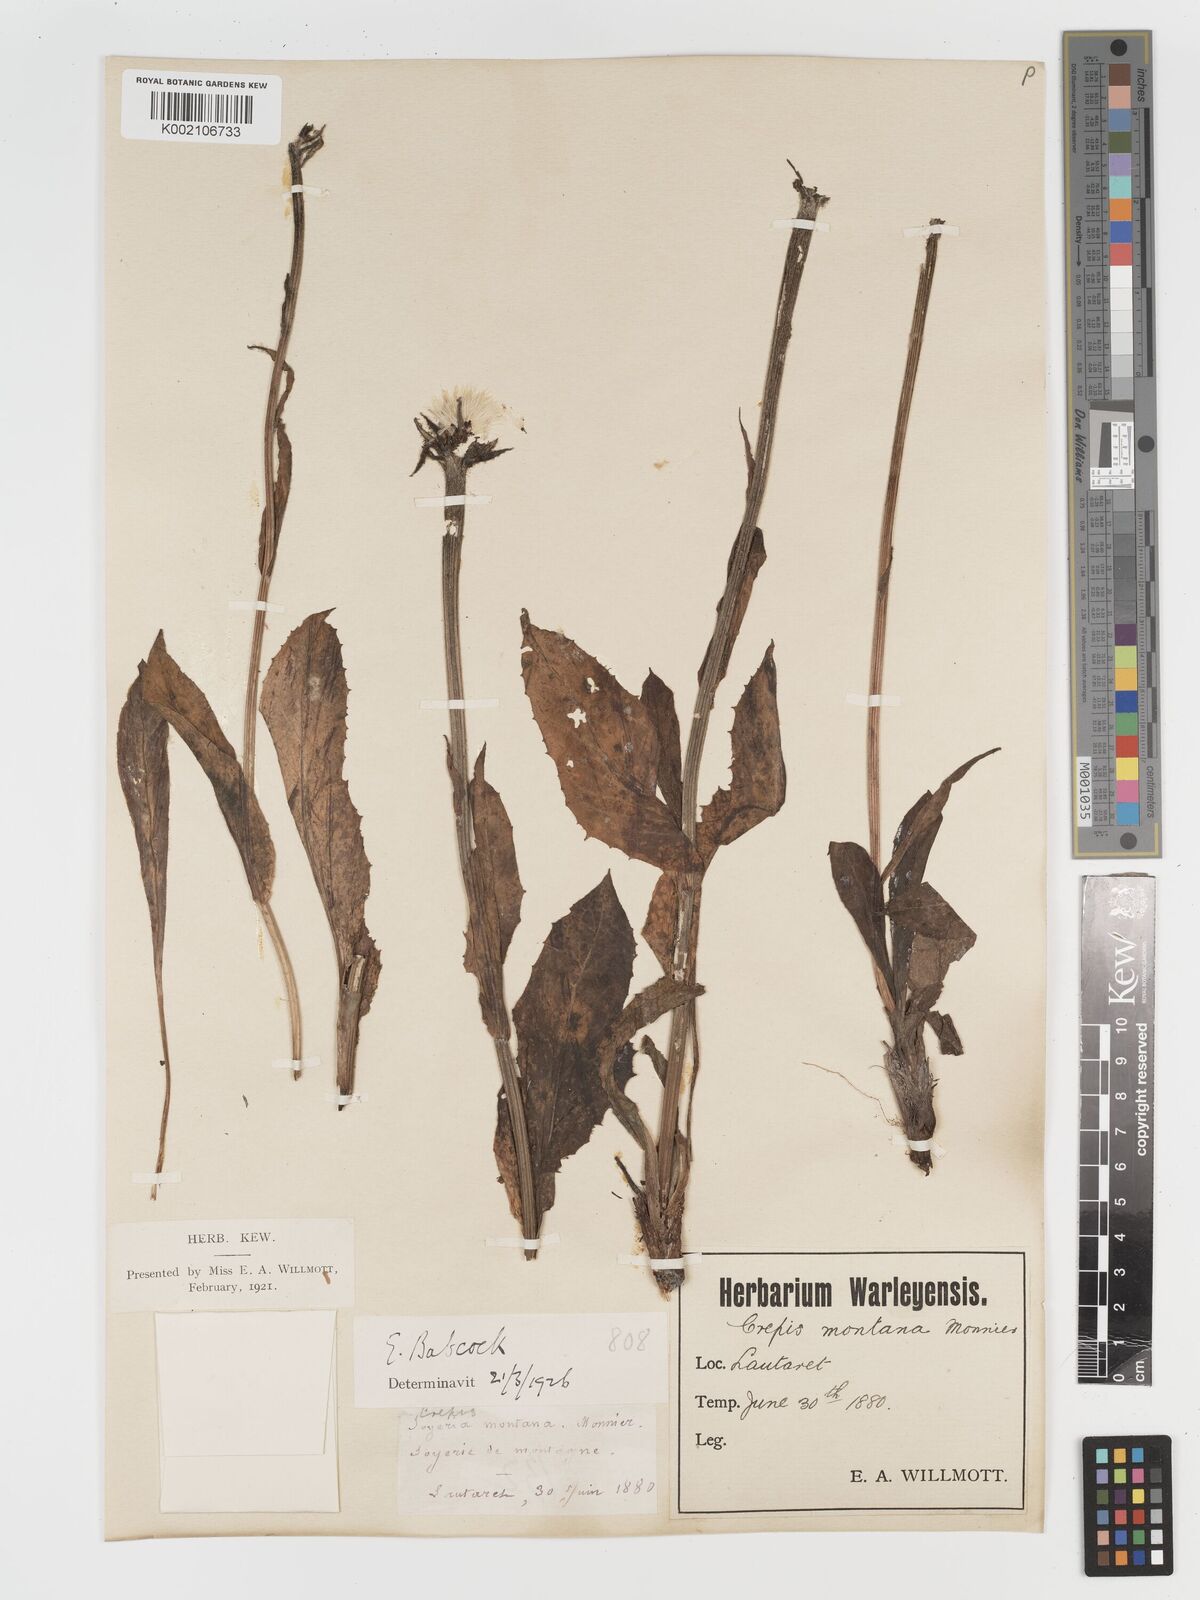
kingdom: Plantae
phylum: Tracheophyta
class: Magnoliopsida
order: Asterales
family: Asteraceae
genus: Crepis
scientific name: Crepis pontana
